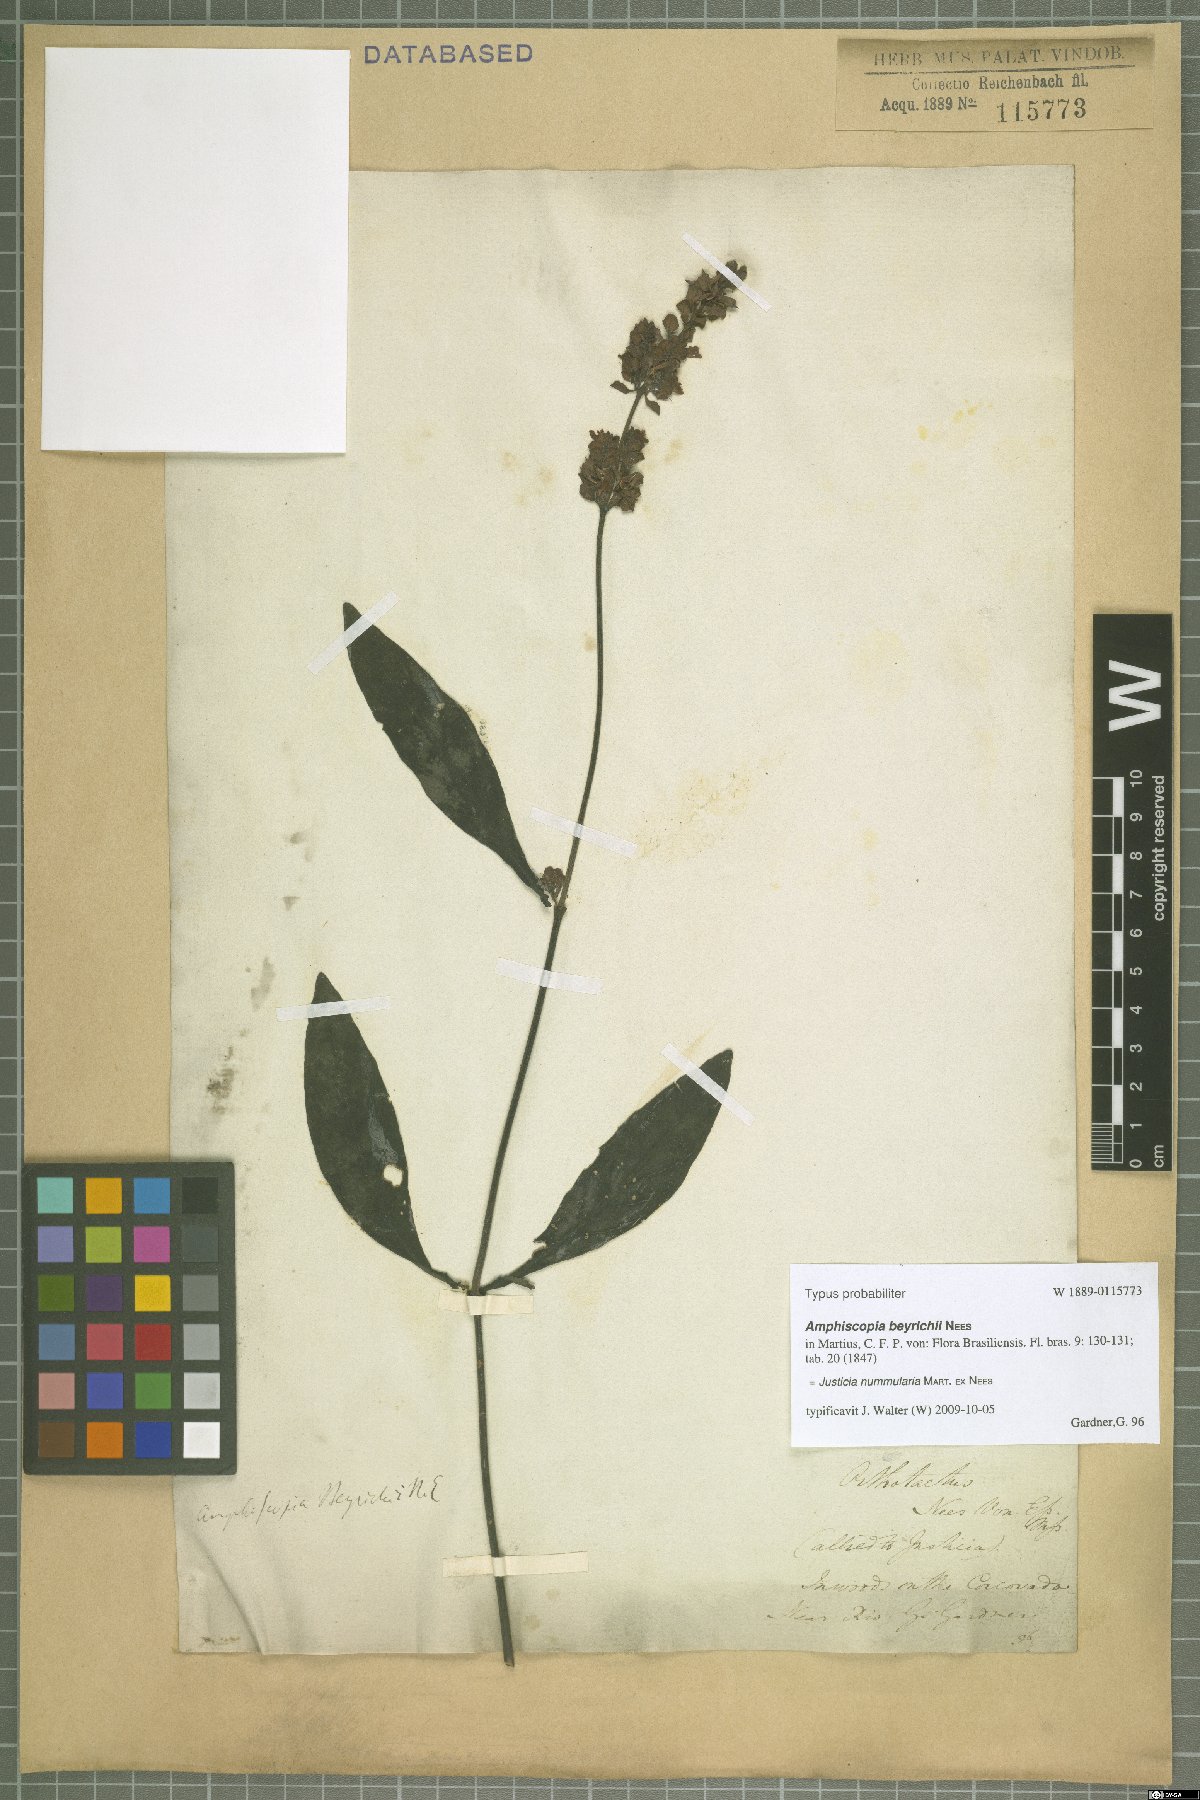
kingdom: Plantae
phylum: Tracheophyta
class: Magnoliopsida
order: Lamiales
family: Acanthaceae
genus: Dianthera
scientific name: Dianthera brasiliensis
